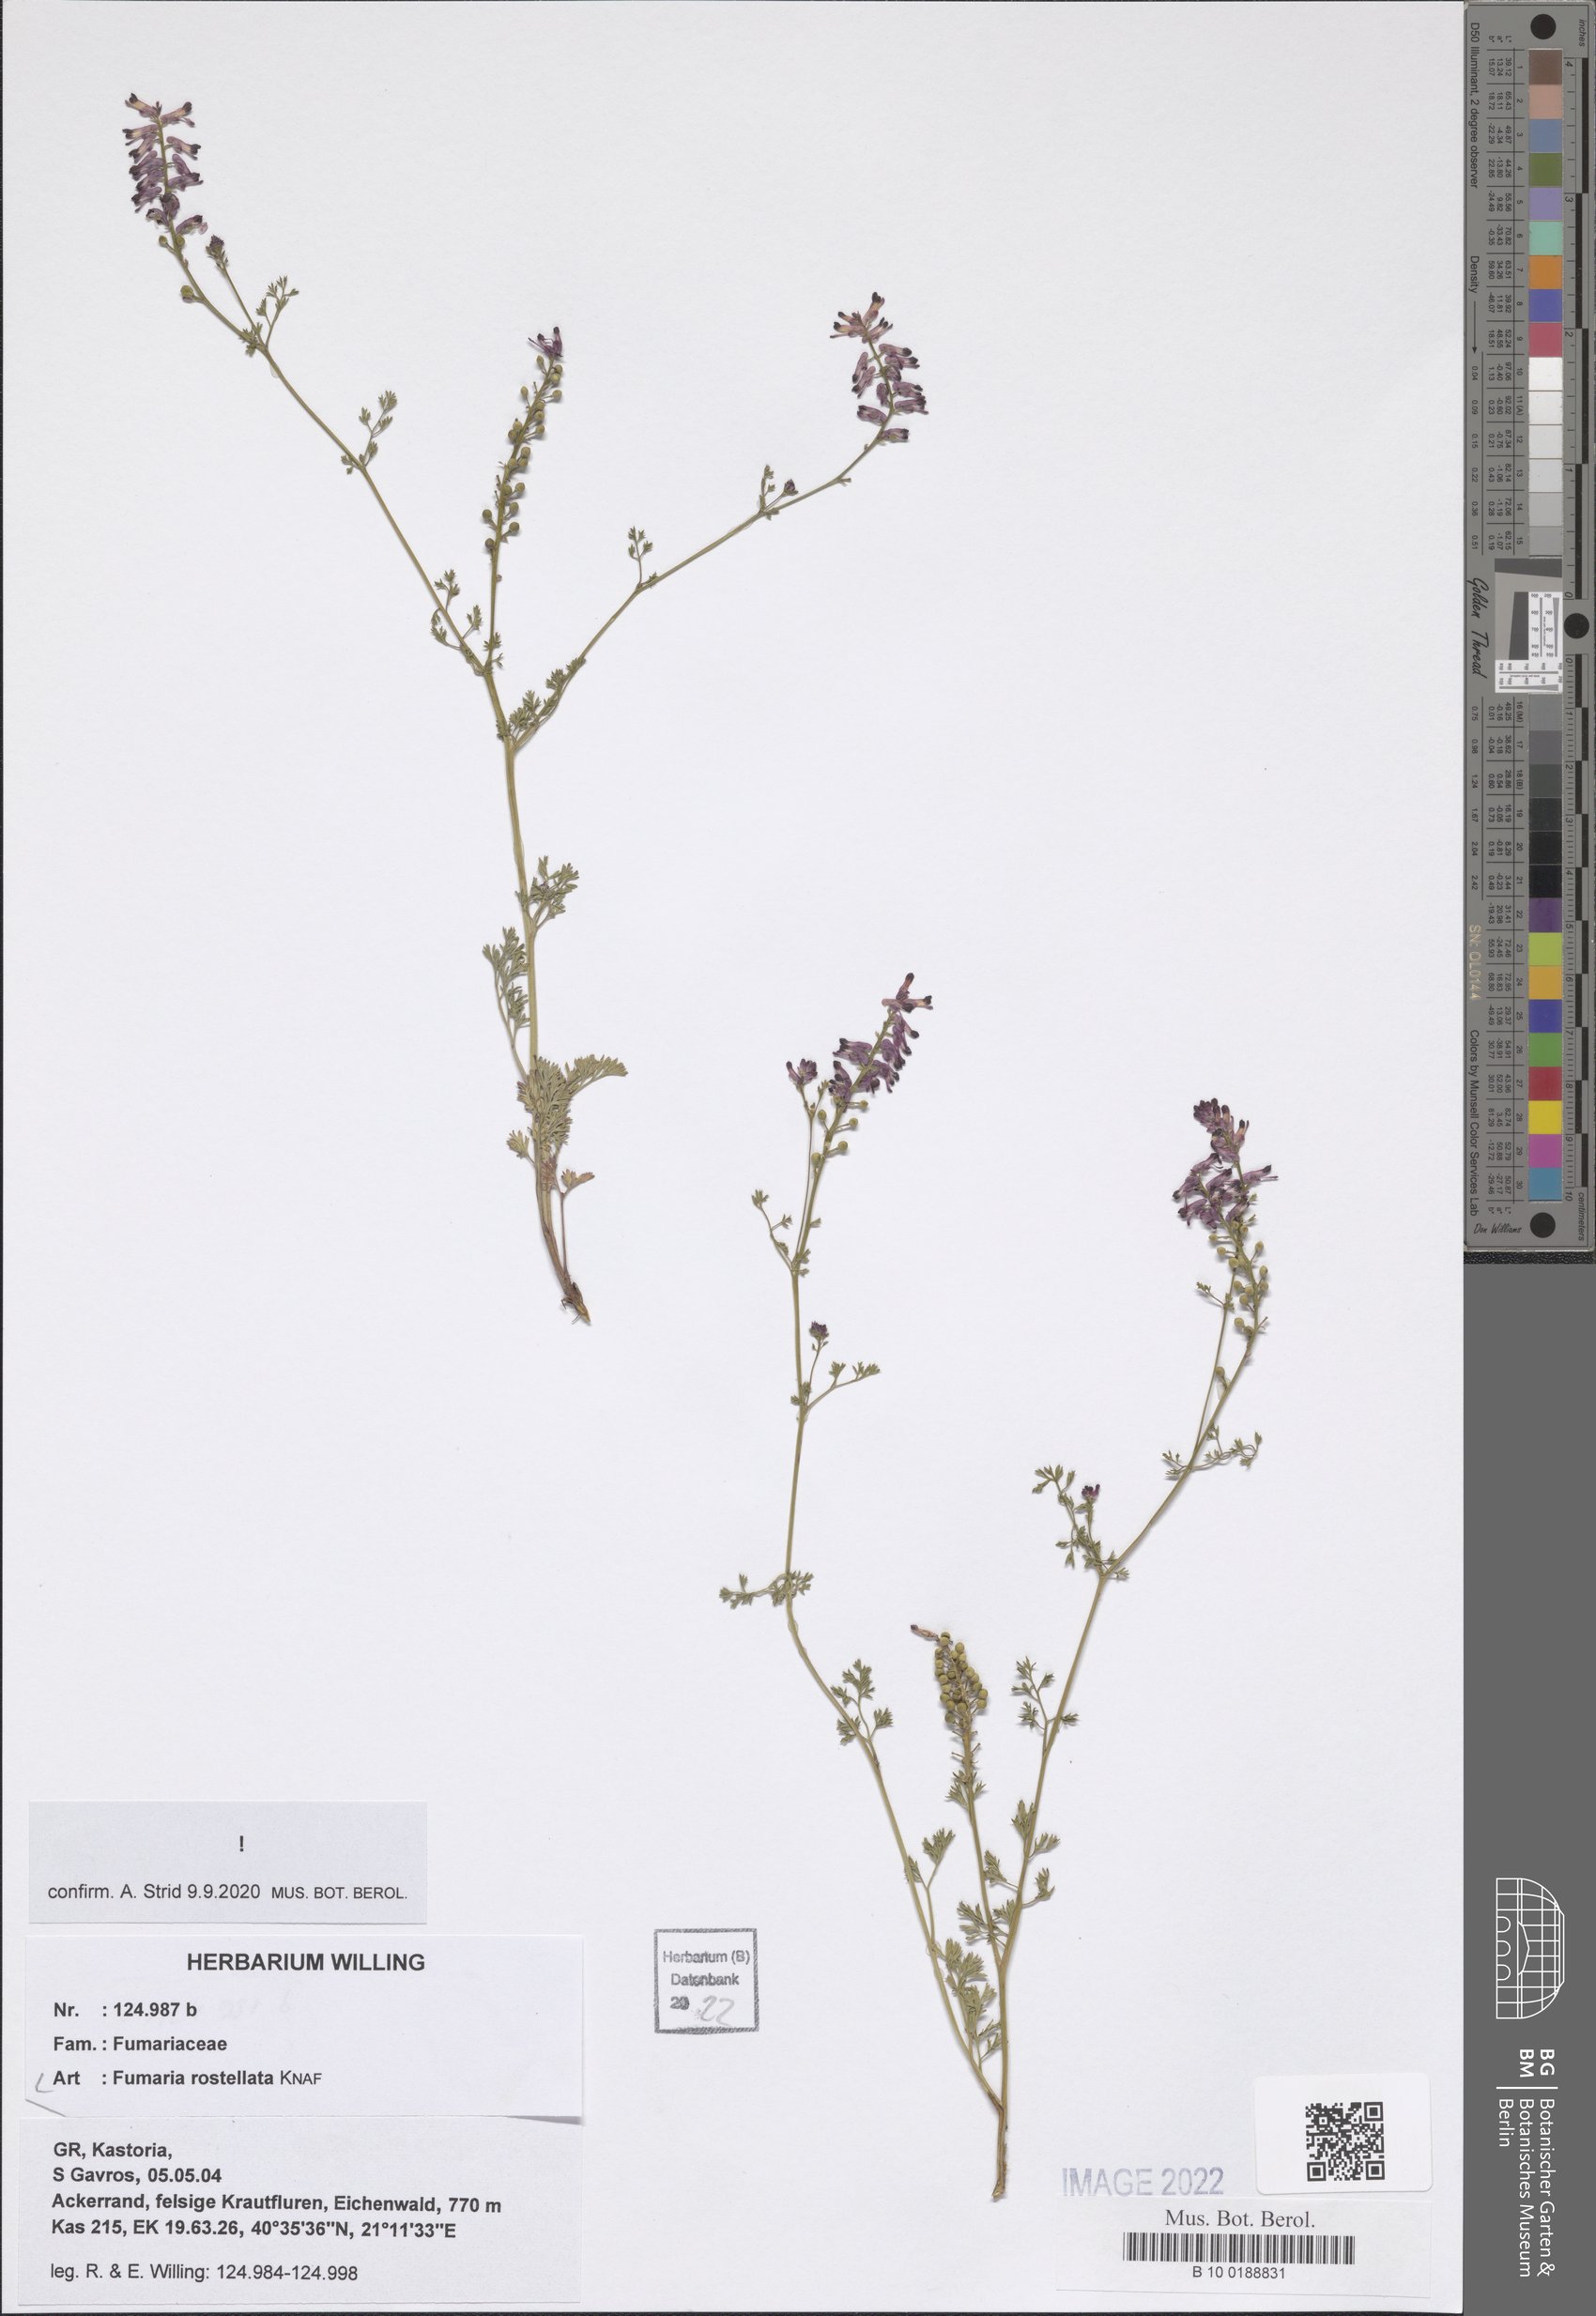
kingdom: Plantae
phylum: Tracheophyta
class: Magnoliopsida
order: Ranunculales
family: Papaveraceae
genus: Fumaria
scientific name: Fumaria rostellata
